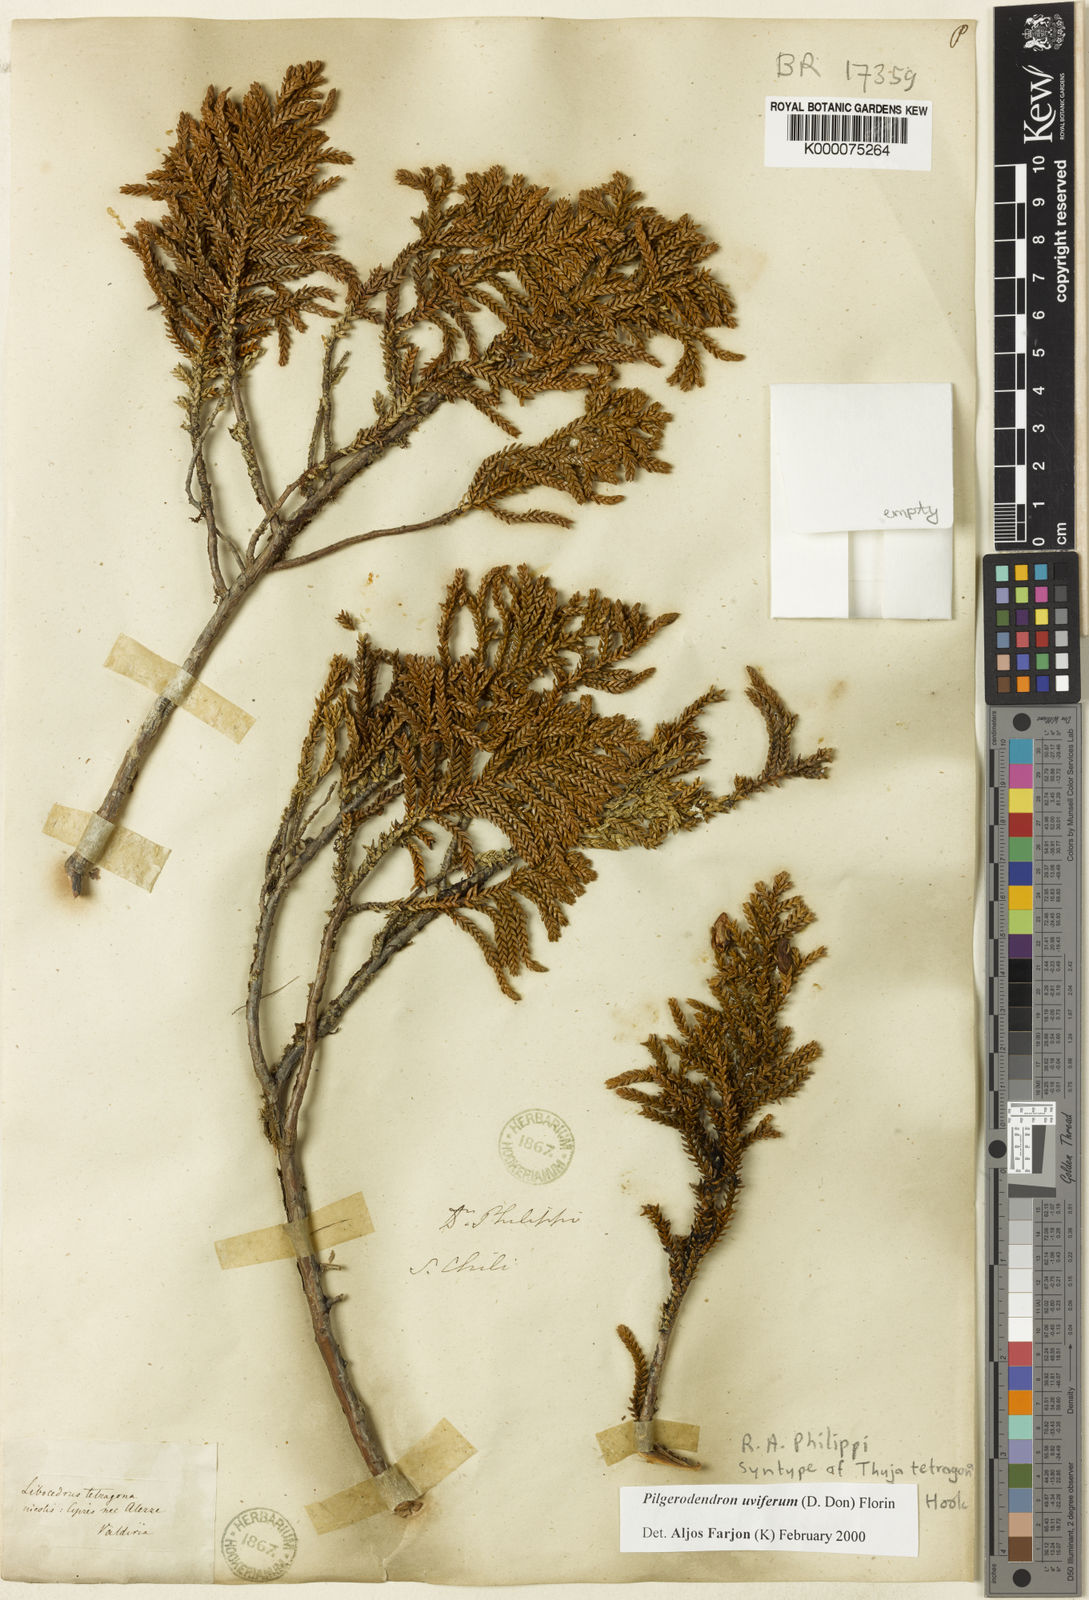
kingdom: Plantae
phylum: Tracheophyta
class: Pinopsida
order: Pinales
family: Cupressaceae
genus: Pilgerodendron
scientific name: Pilgerodendron uviferum
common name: Guaitecas cypress
